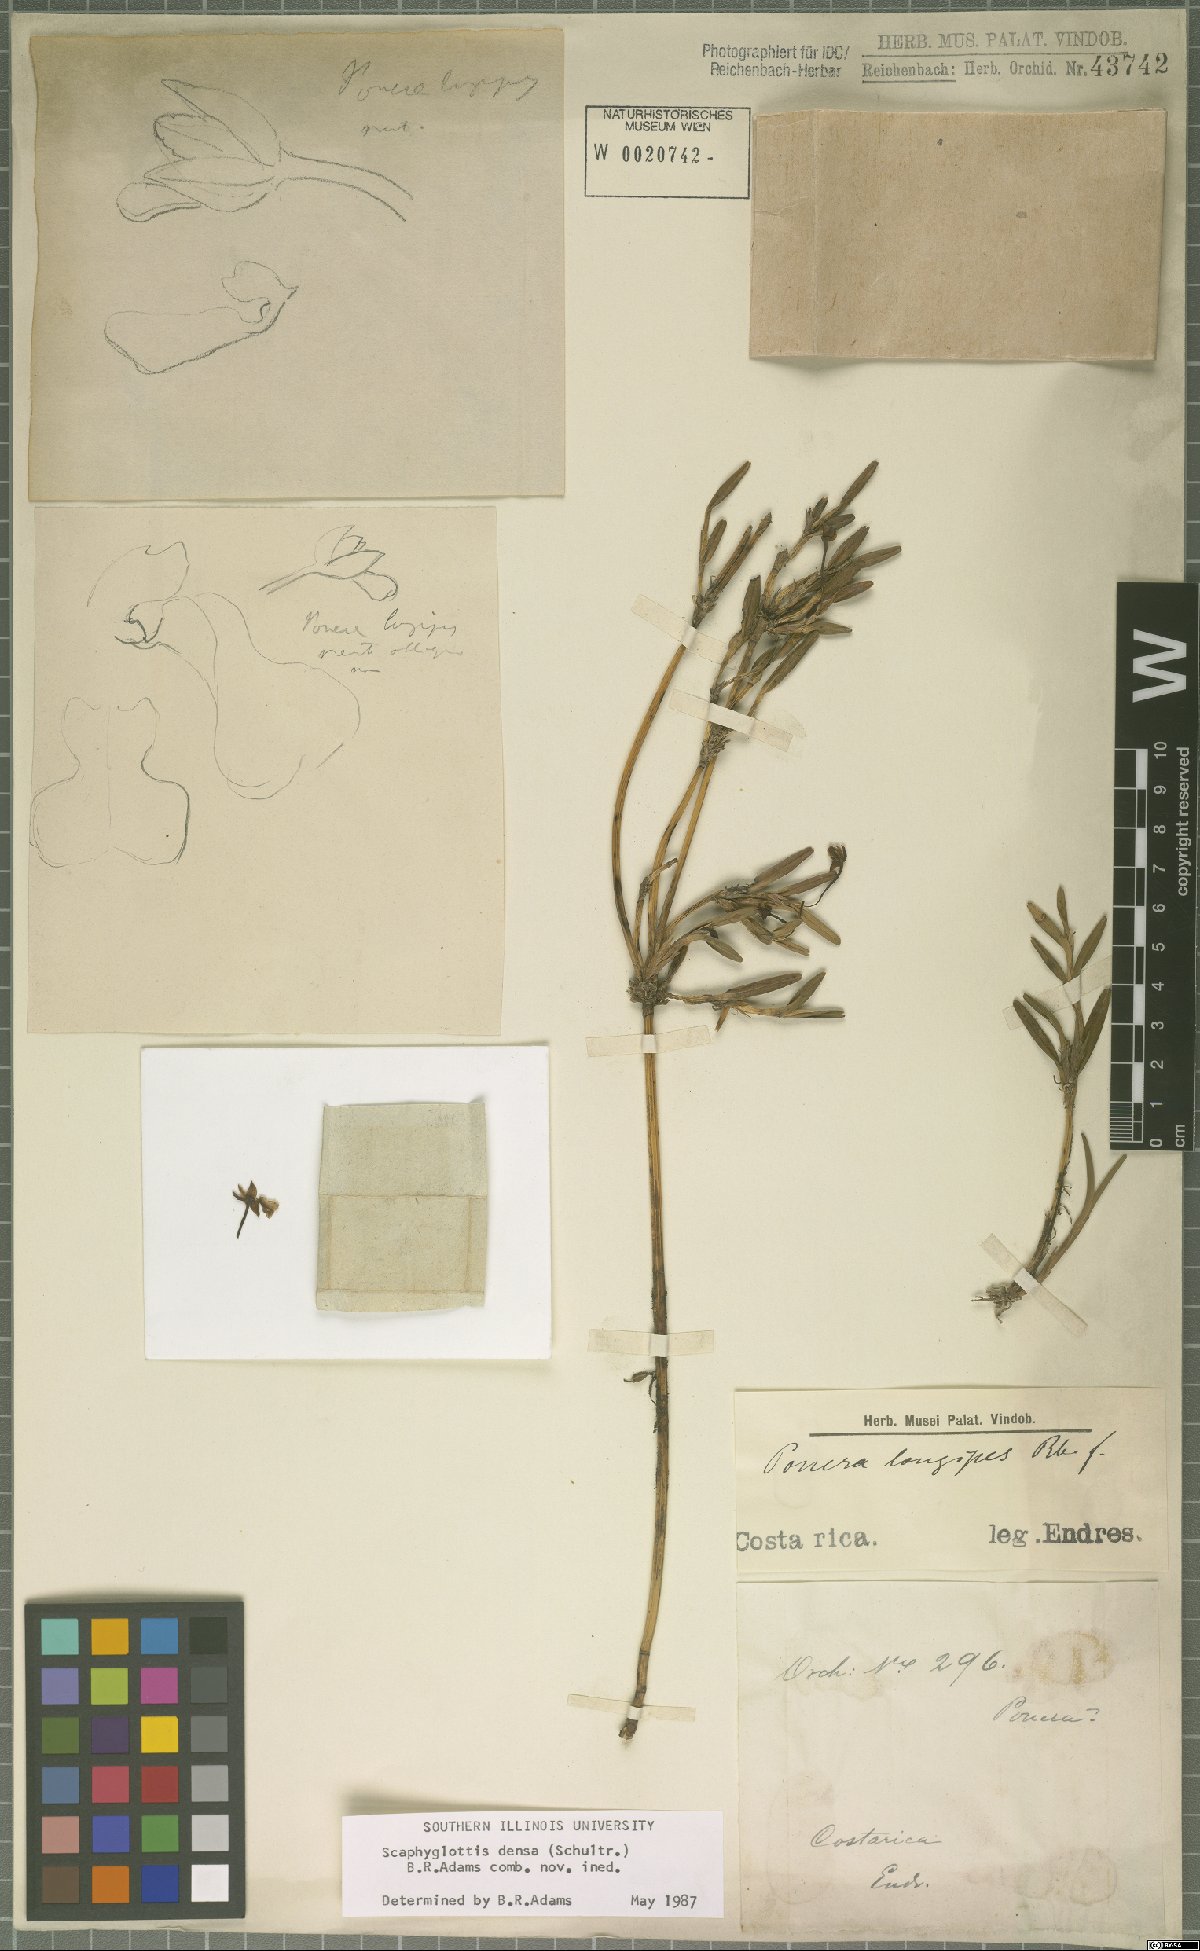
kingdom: Plantae
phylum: Tracheophyta
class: Liliopsida
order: Asparagales
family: Orchidaceae
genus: Scaphyglottis
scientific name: Scaphyglottis densa
